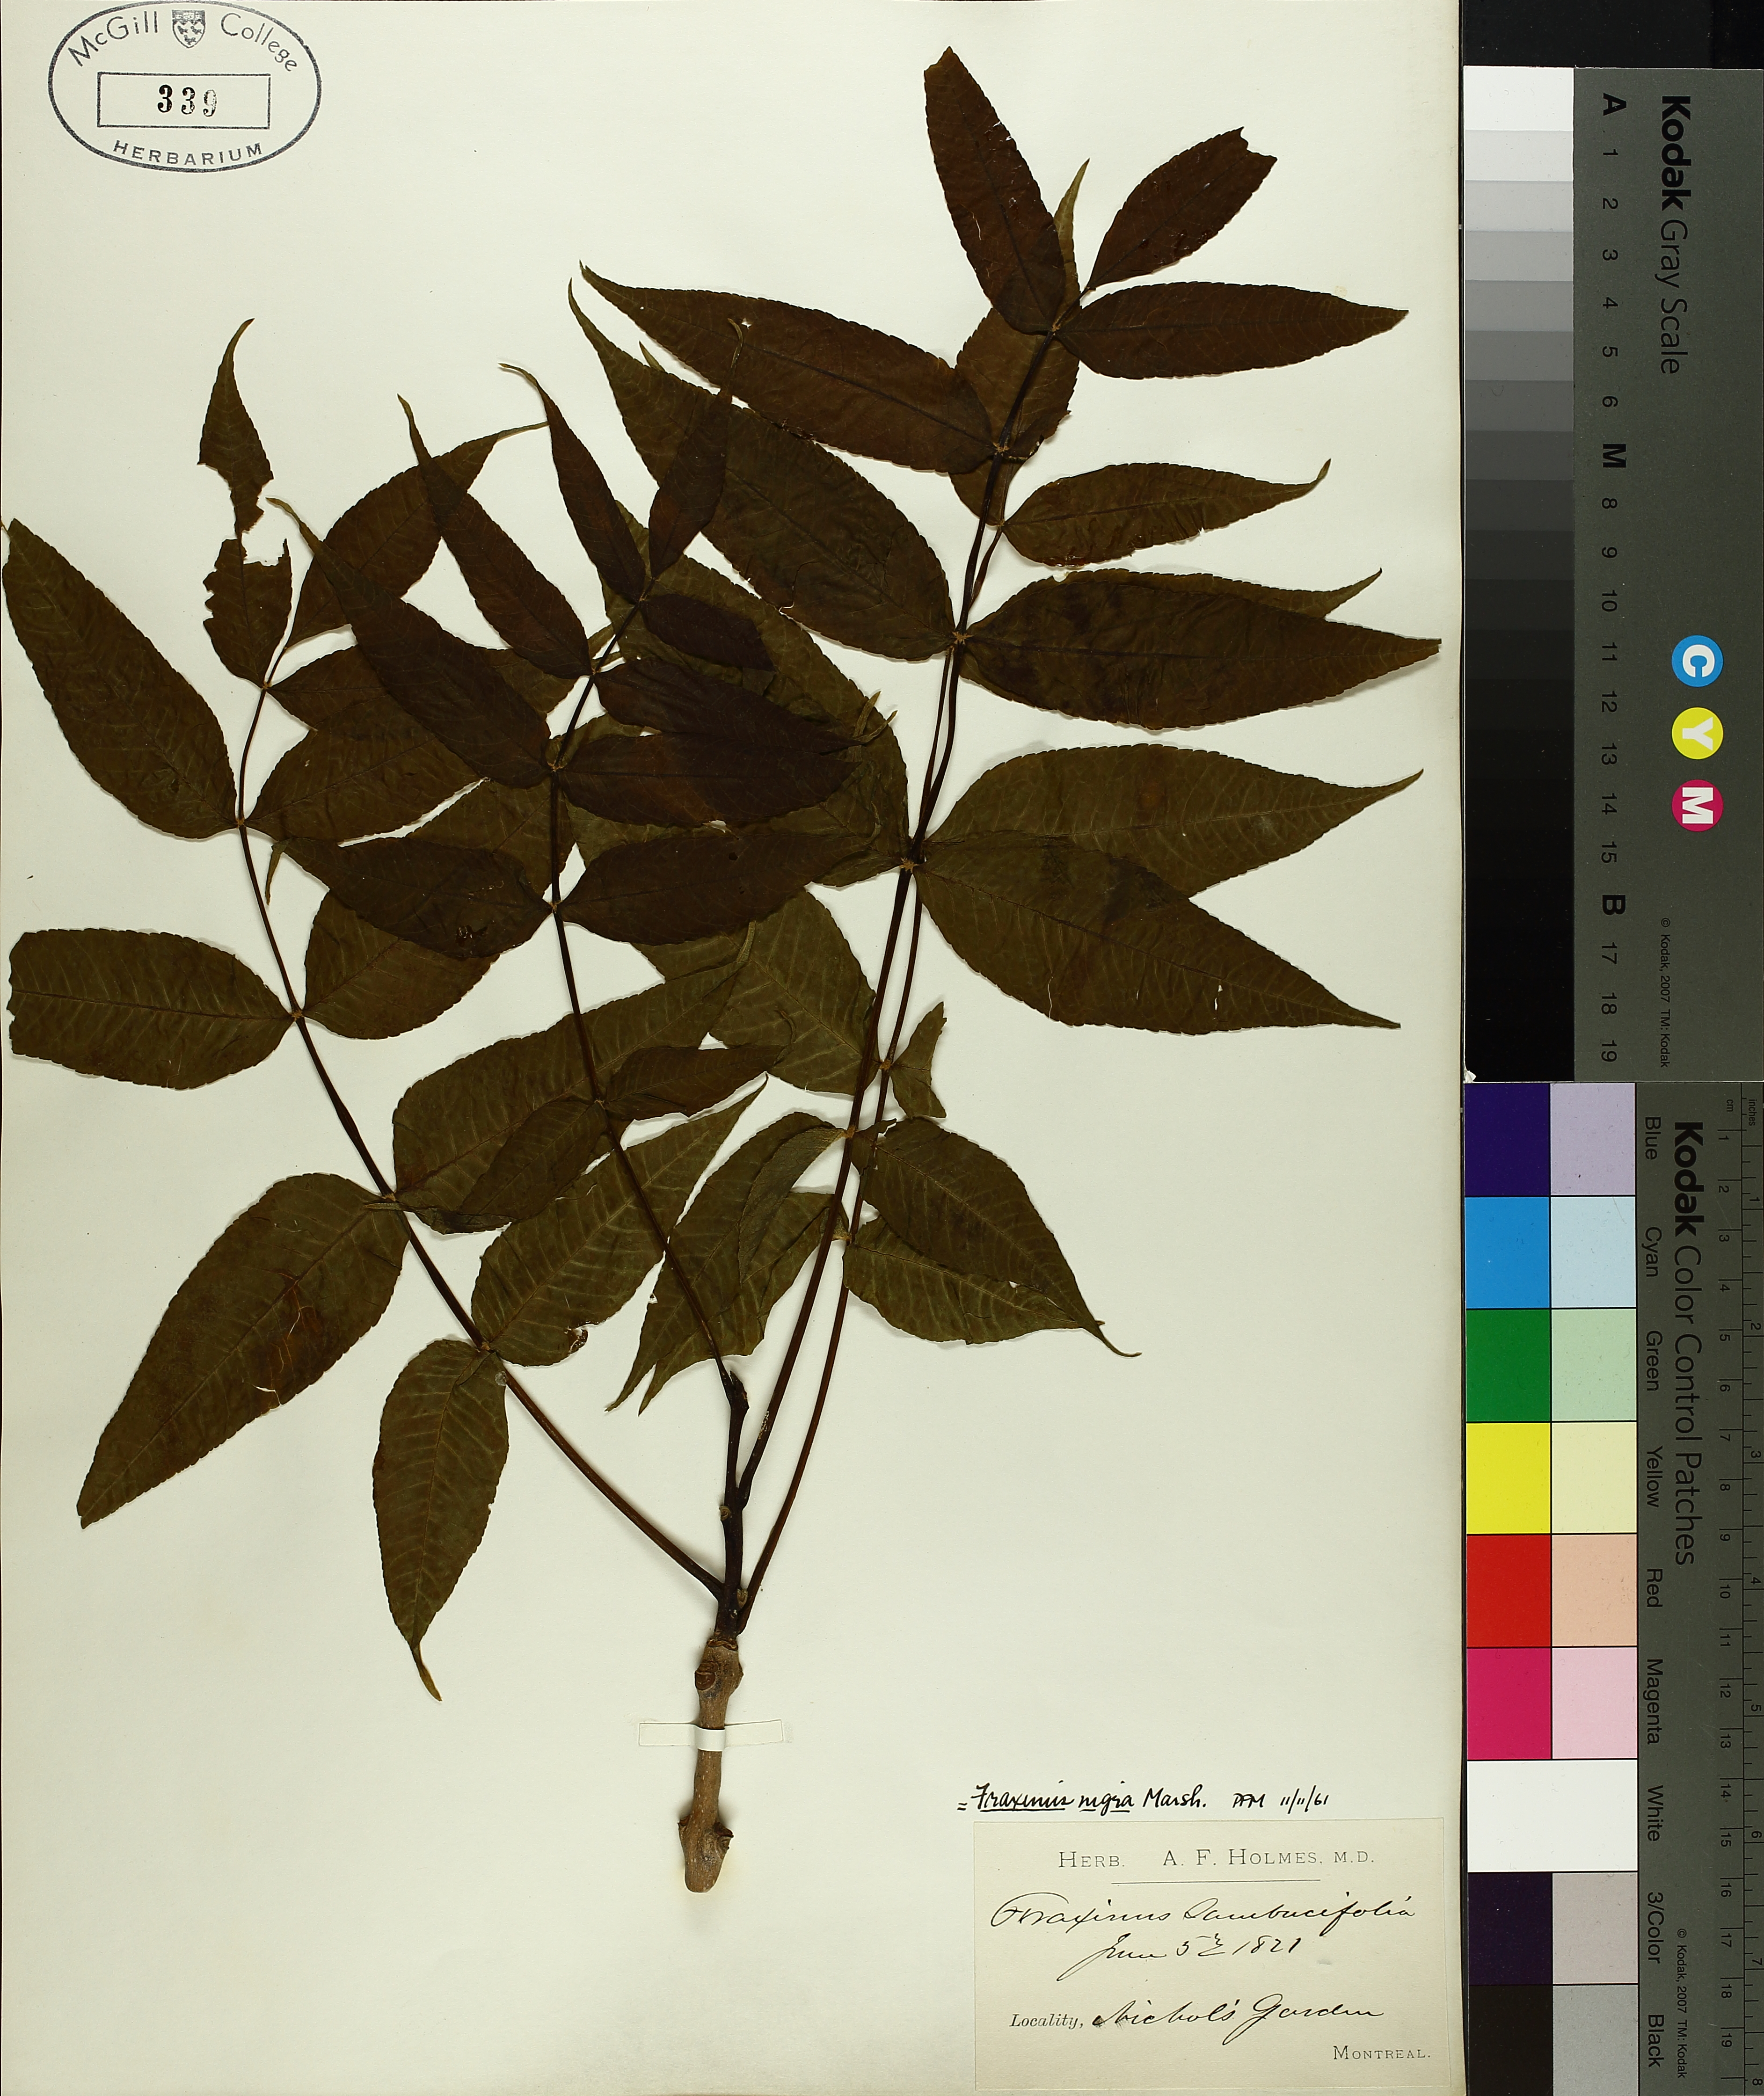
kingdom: Plantae
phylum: Tracheophyta
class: Magnoliopsida
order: Lamiales
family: Oleaceae
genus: Fraxinus
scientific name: Fraxinus nigra
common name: Black ash
